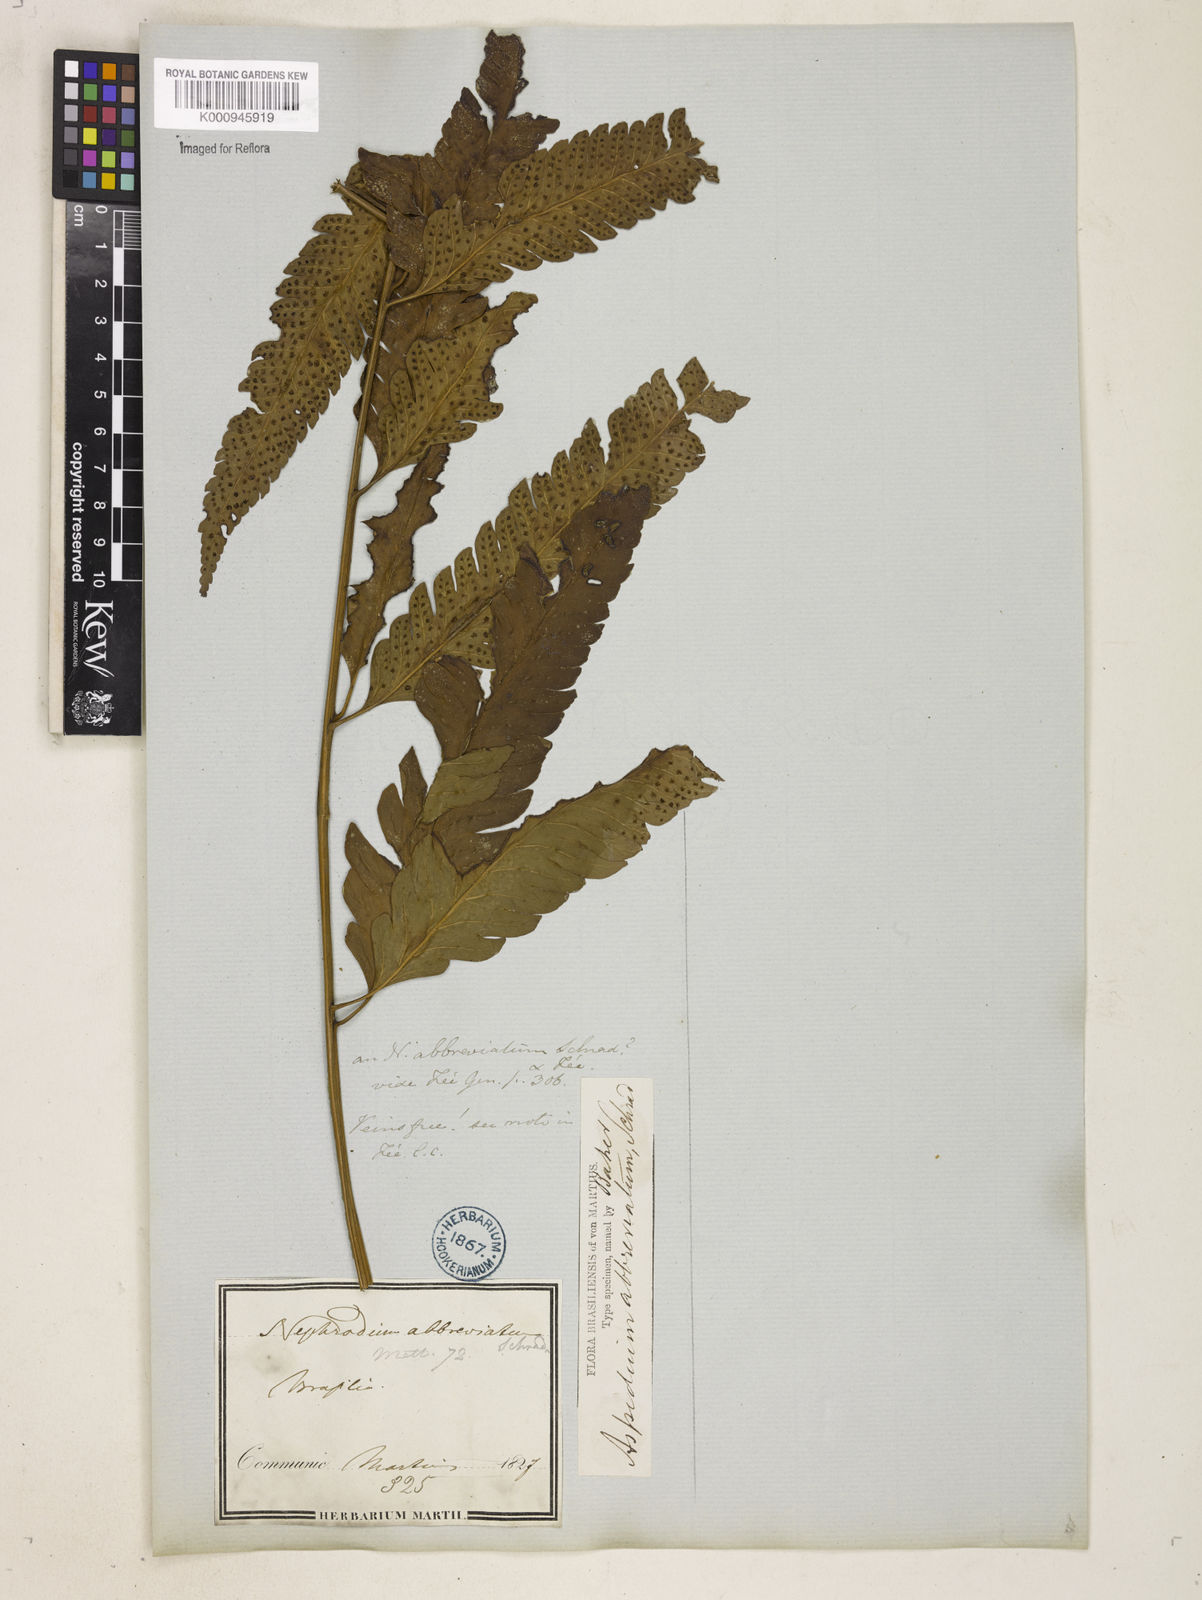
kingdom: Plantae
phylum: Tracheophyta
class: Polypodiopsida
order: Polypodiales
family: Dryopteridaceae
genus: Cyclodium
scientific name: Cyclodium
